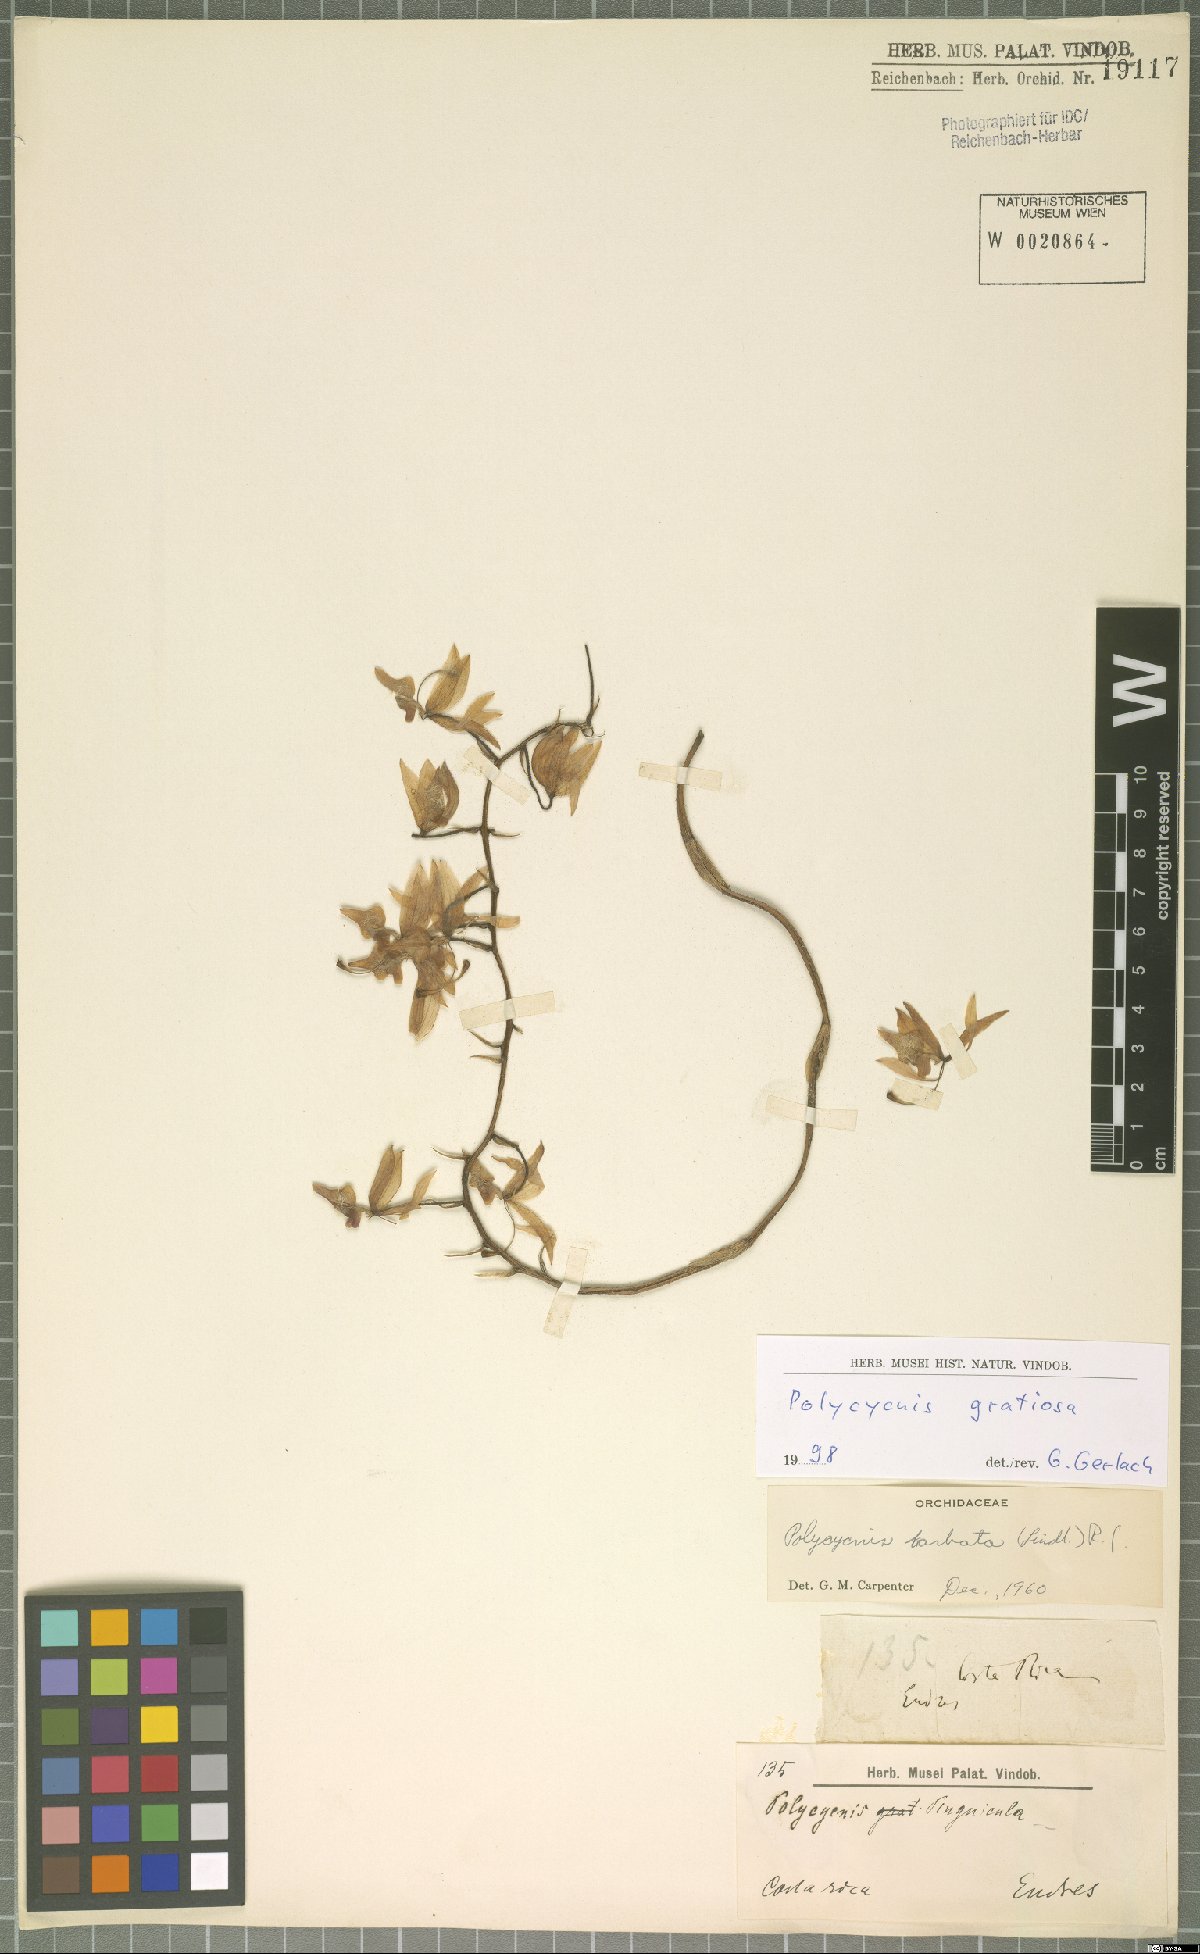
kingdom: Plantae
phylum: Tracheophyta
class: Liliopsida
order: Asparagales
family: Orchidaceae
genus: Polycycnis
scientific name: Polycycnis lepida
